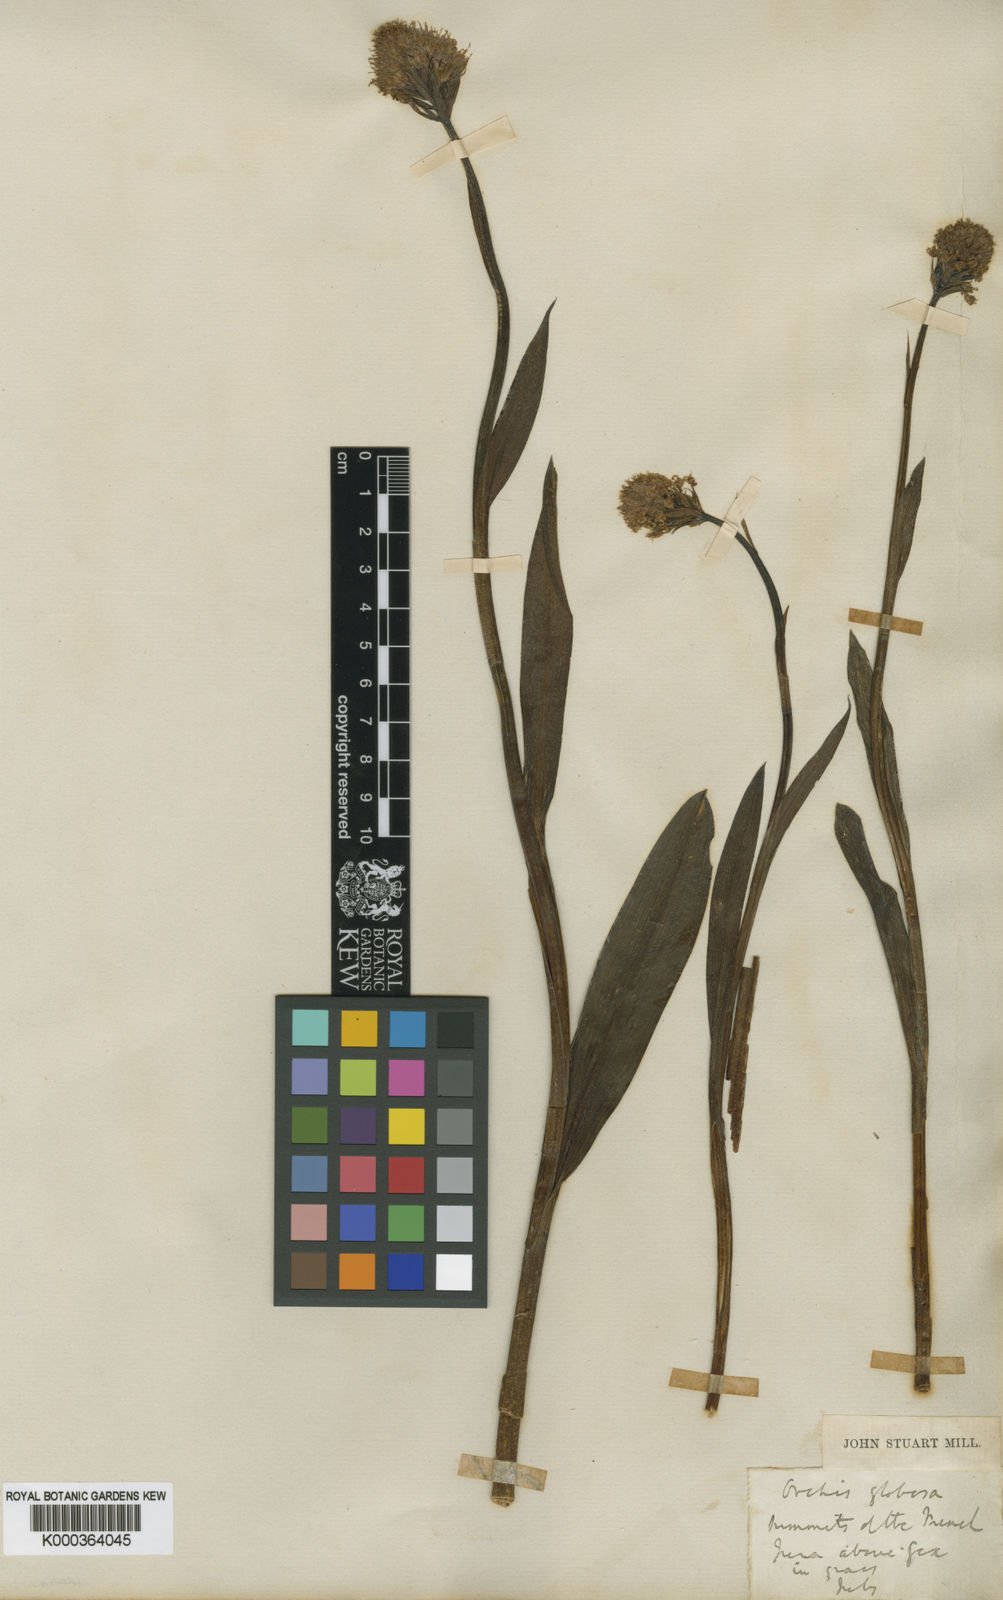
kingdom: Plantae
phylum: Tracheophyta
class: Liliopsida
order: Asparagales
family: Orchidaceae
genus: Traunsteinera
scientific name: Traunsteinera globosa
